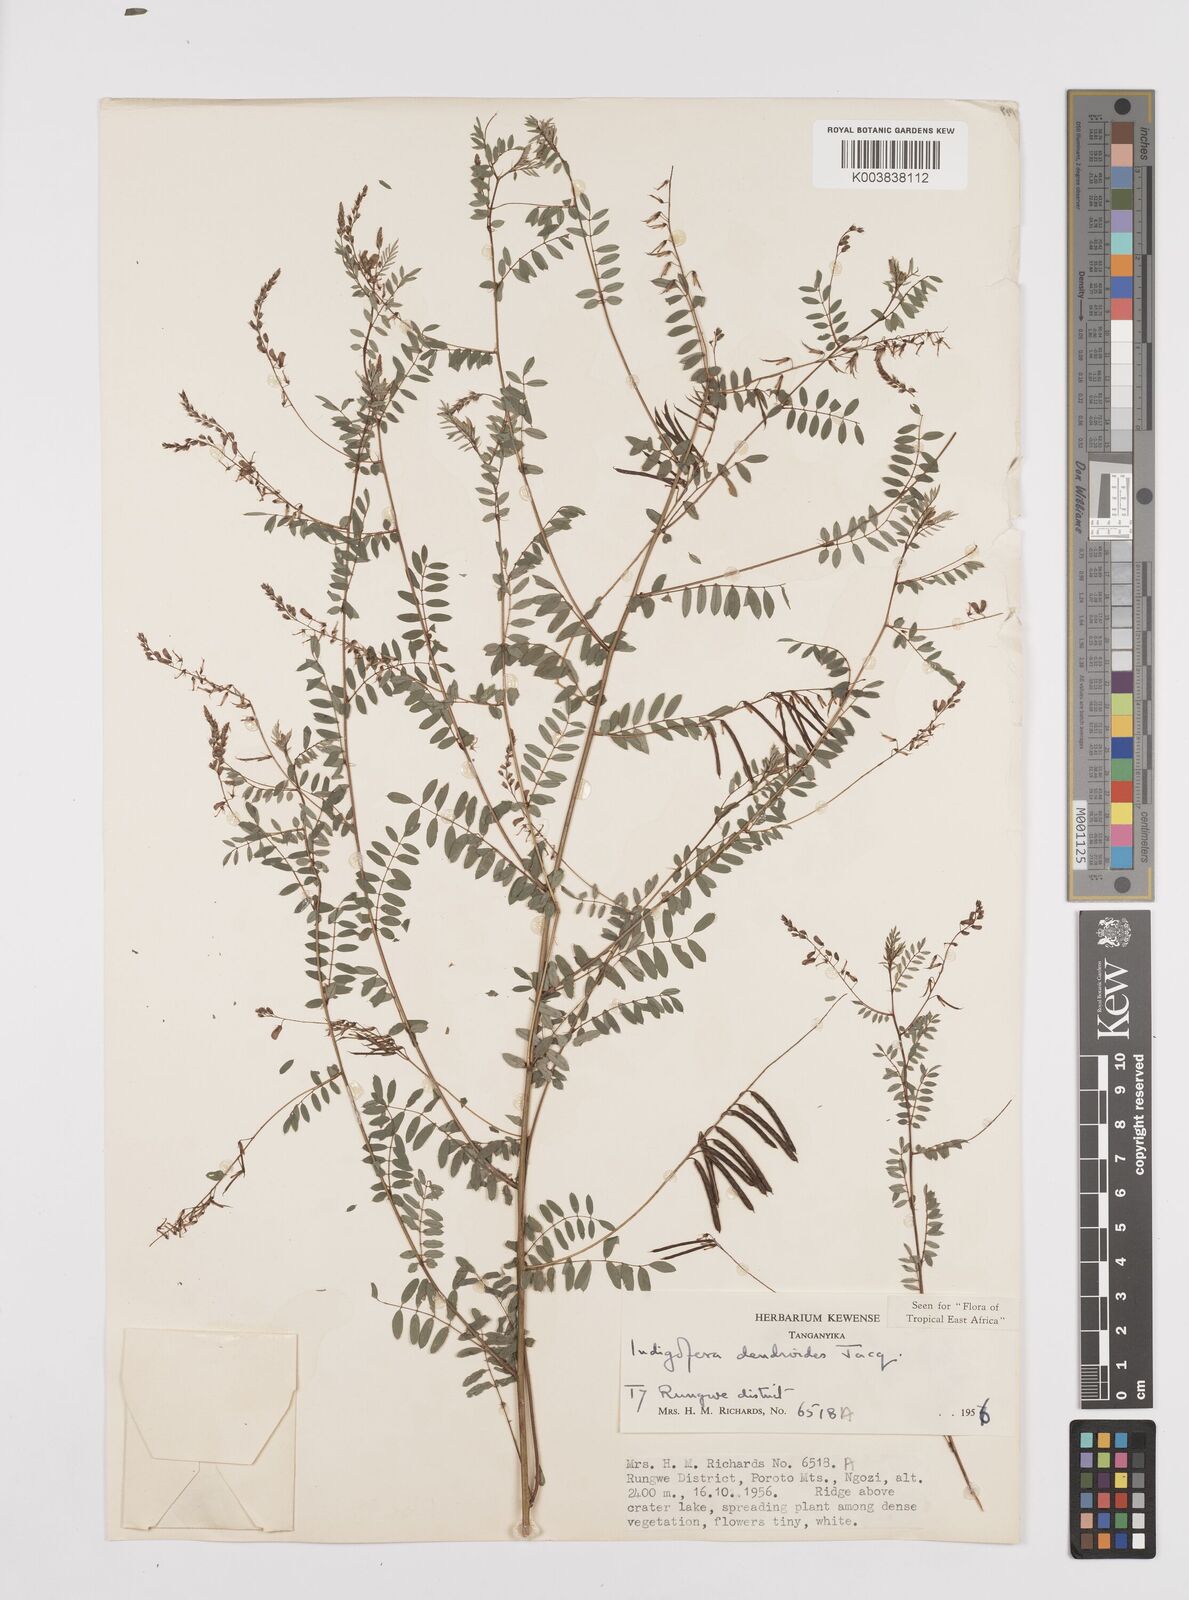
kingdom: Plantae
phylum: Tracheophyta
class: Magnoliopsida
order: Fabales
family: Fabaceae
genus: Indigofera
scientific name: Indigofera dendroides
